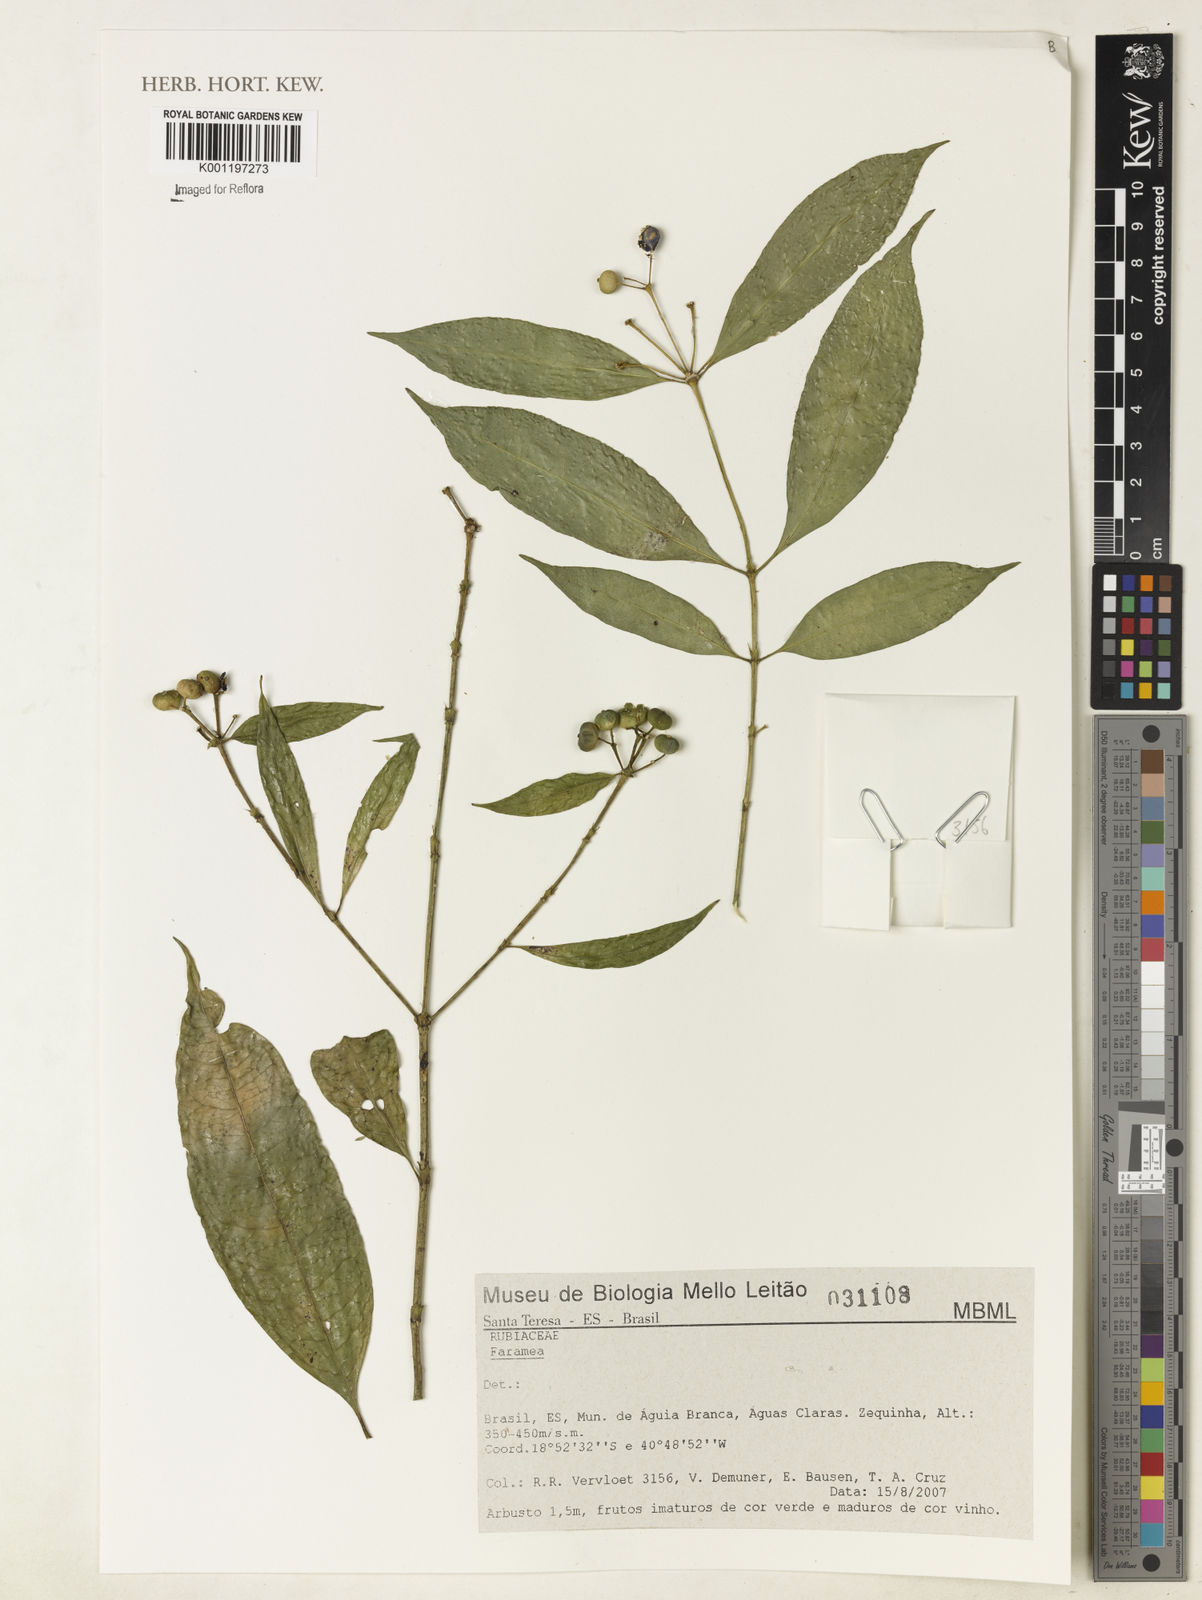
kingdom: Plantae
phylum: Tracheophyta
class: Magnoliopsida
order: Gentianales
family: Rubiaceae
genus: Faramea
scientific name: Faramea
